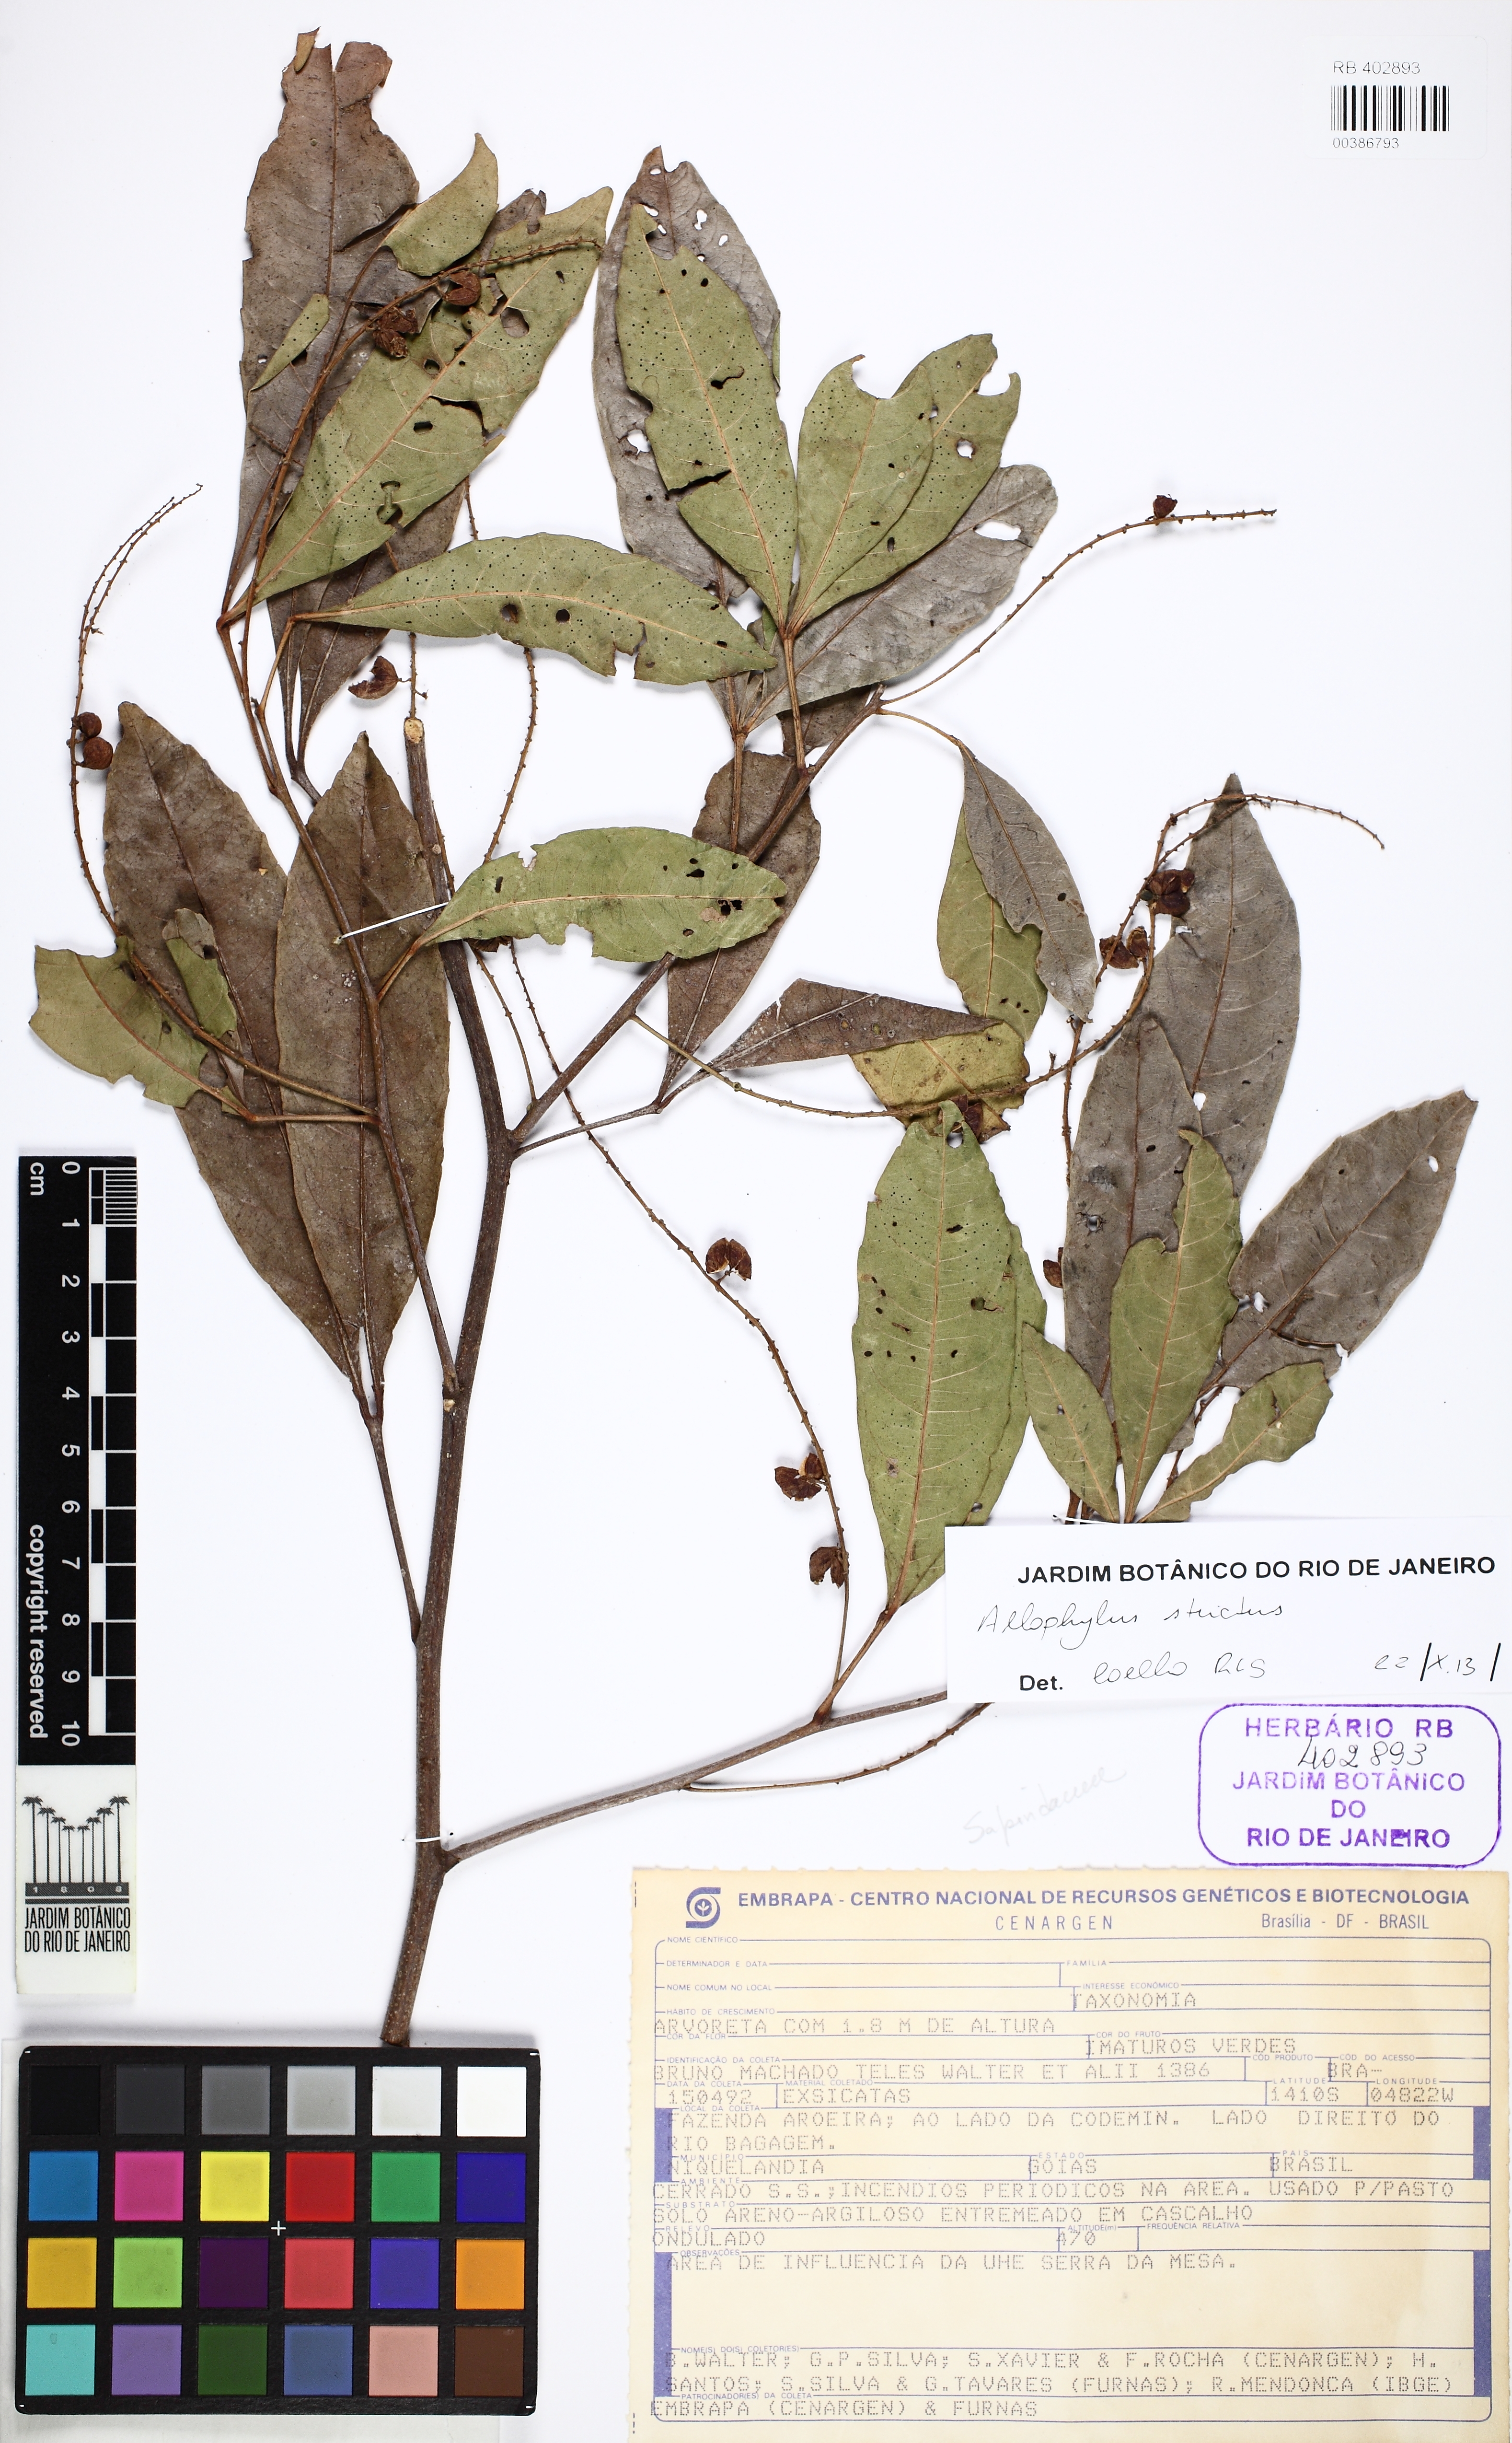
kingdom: Plantae
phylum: Tracheophyta
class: Magnoliopsida
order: Sapindales
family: Sapindaceae
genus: Allophylus
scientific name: Allophylus strictus
